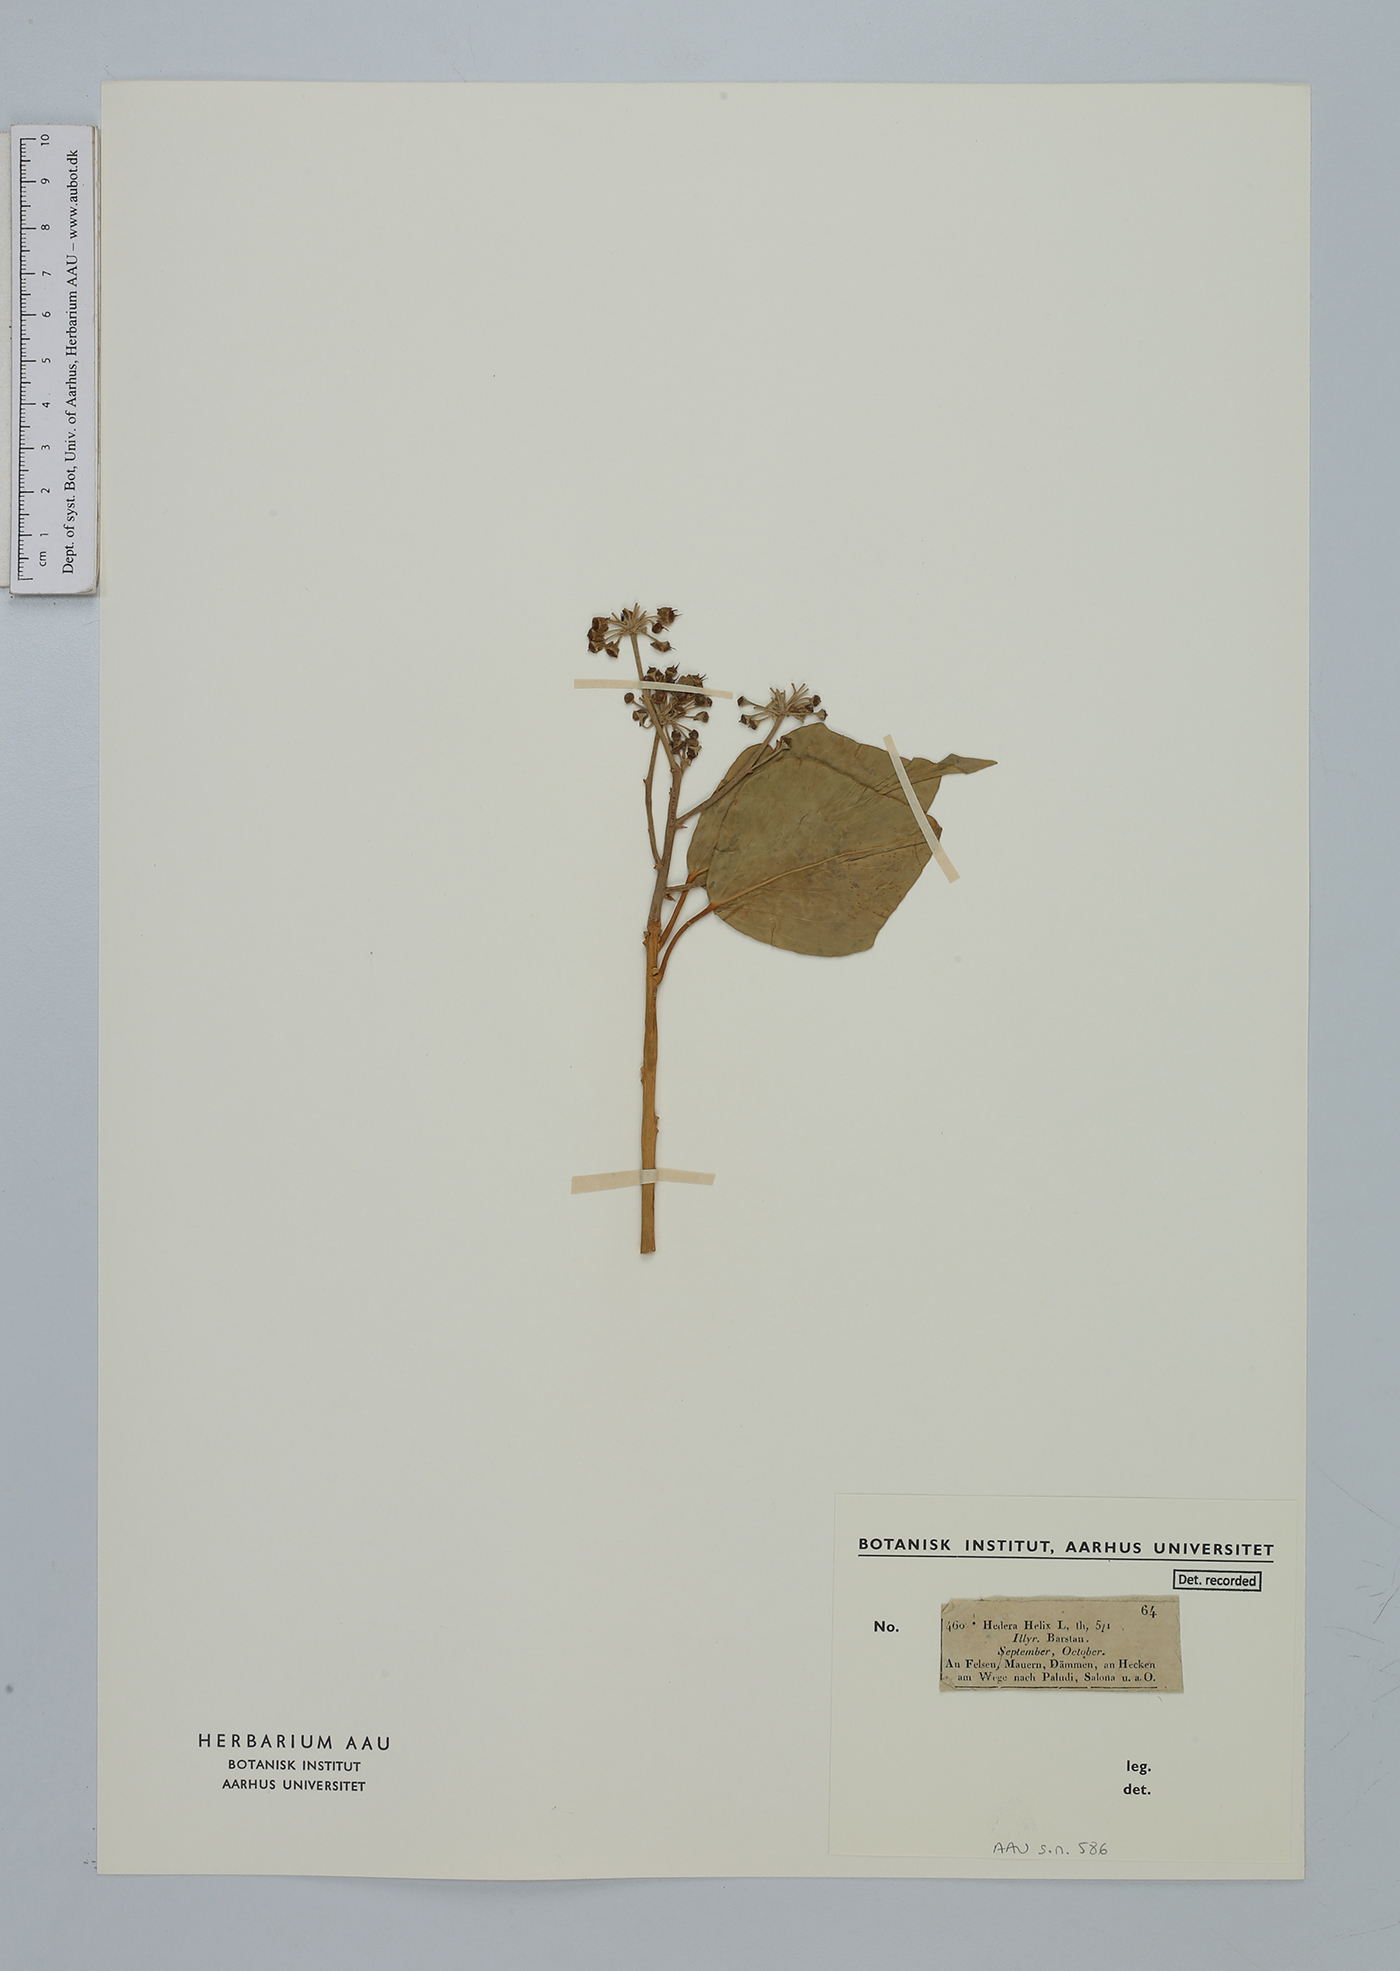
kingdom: Plantae
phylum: Tracheophyta
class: Magnoliopsida
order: Apiales
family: Araliaceae
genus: Hedera
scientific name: Hedera helix
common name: Ivy
